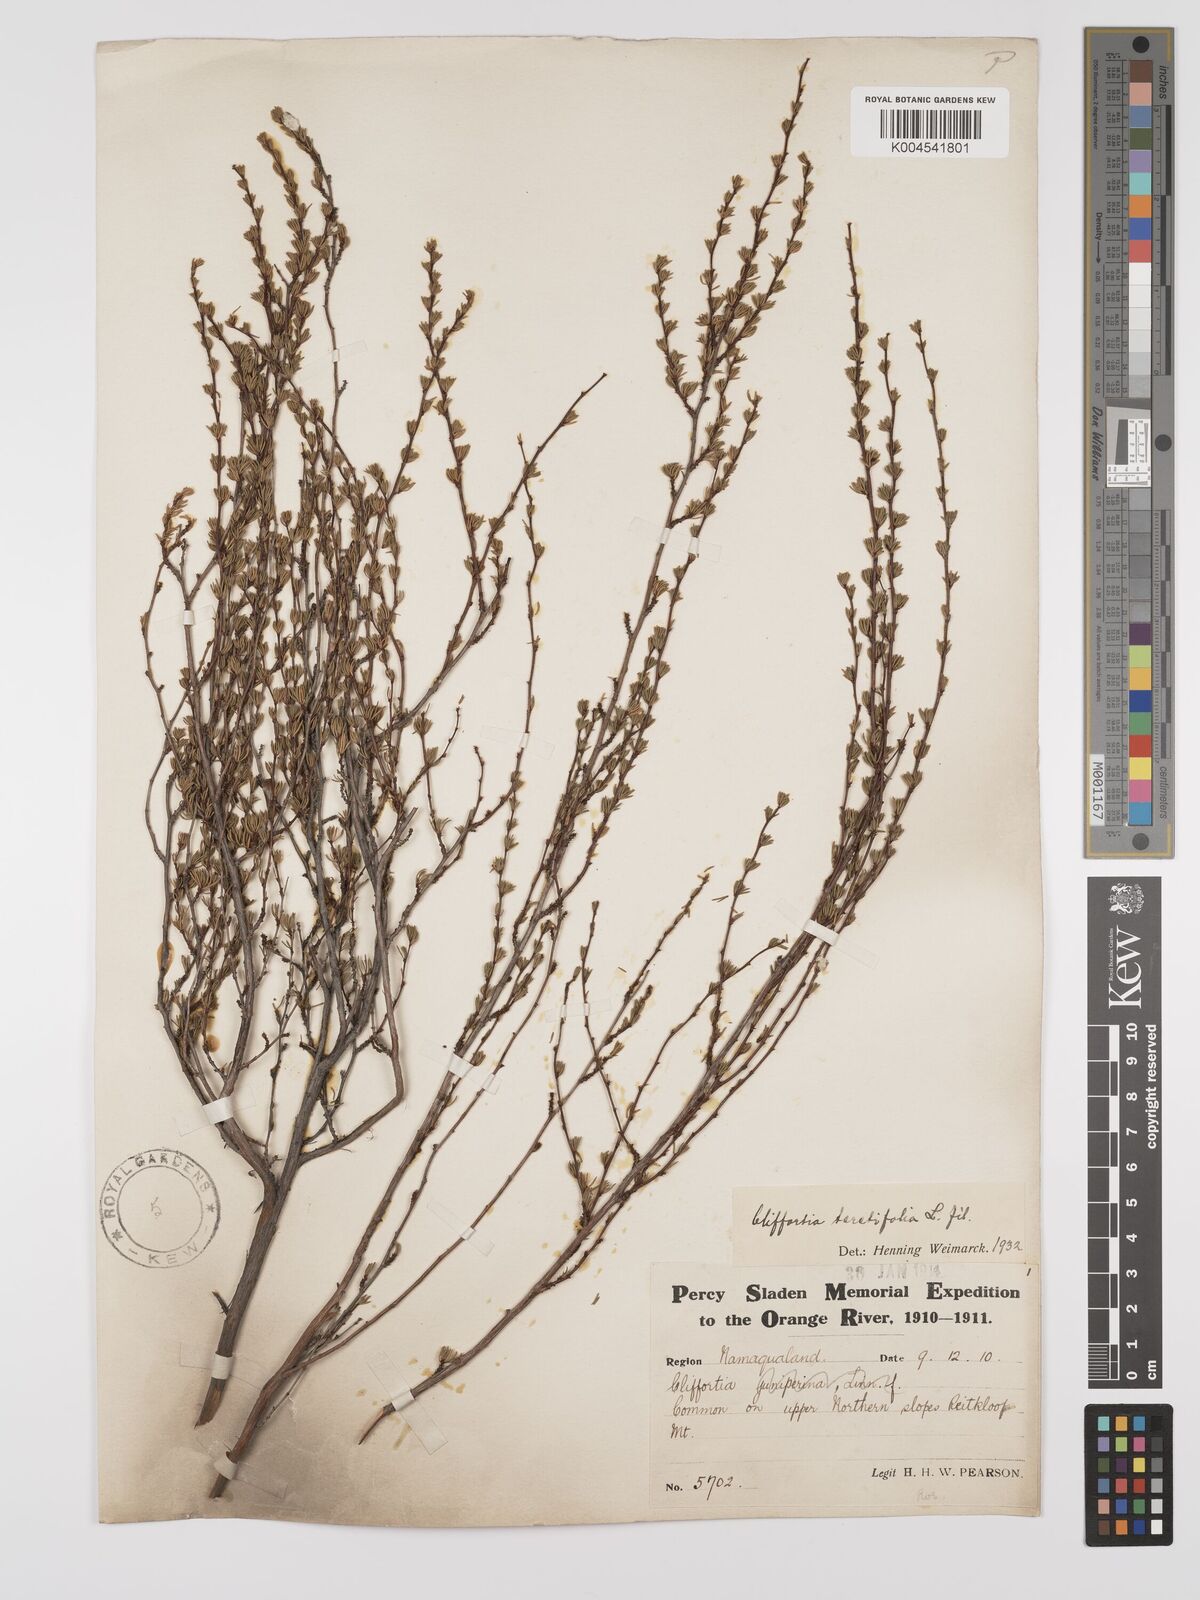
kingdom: Plantae
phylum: Tracheophyta
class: Magnoliopsida
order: Rosales
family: Rosaceae
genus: Cliffortia
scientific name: Cliffortia teretifolia
